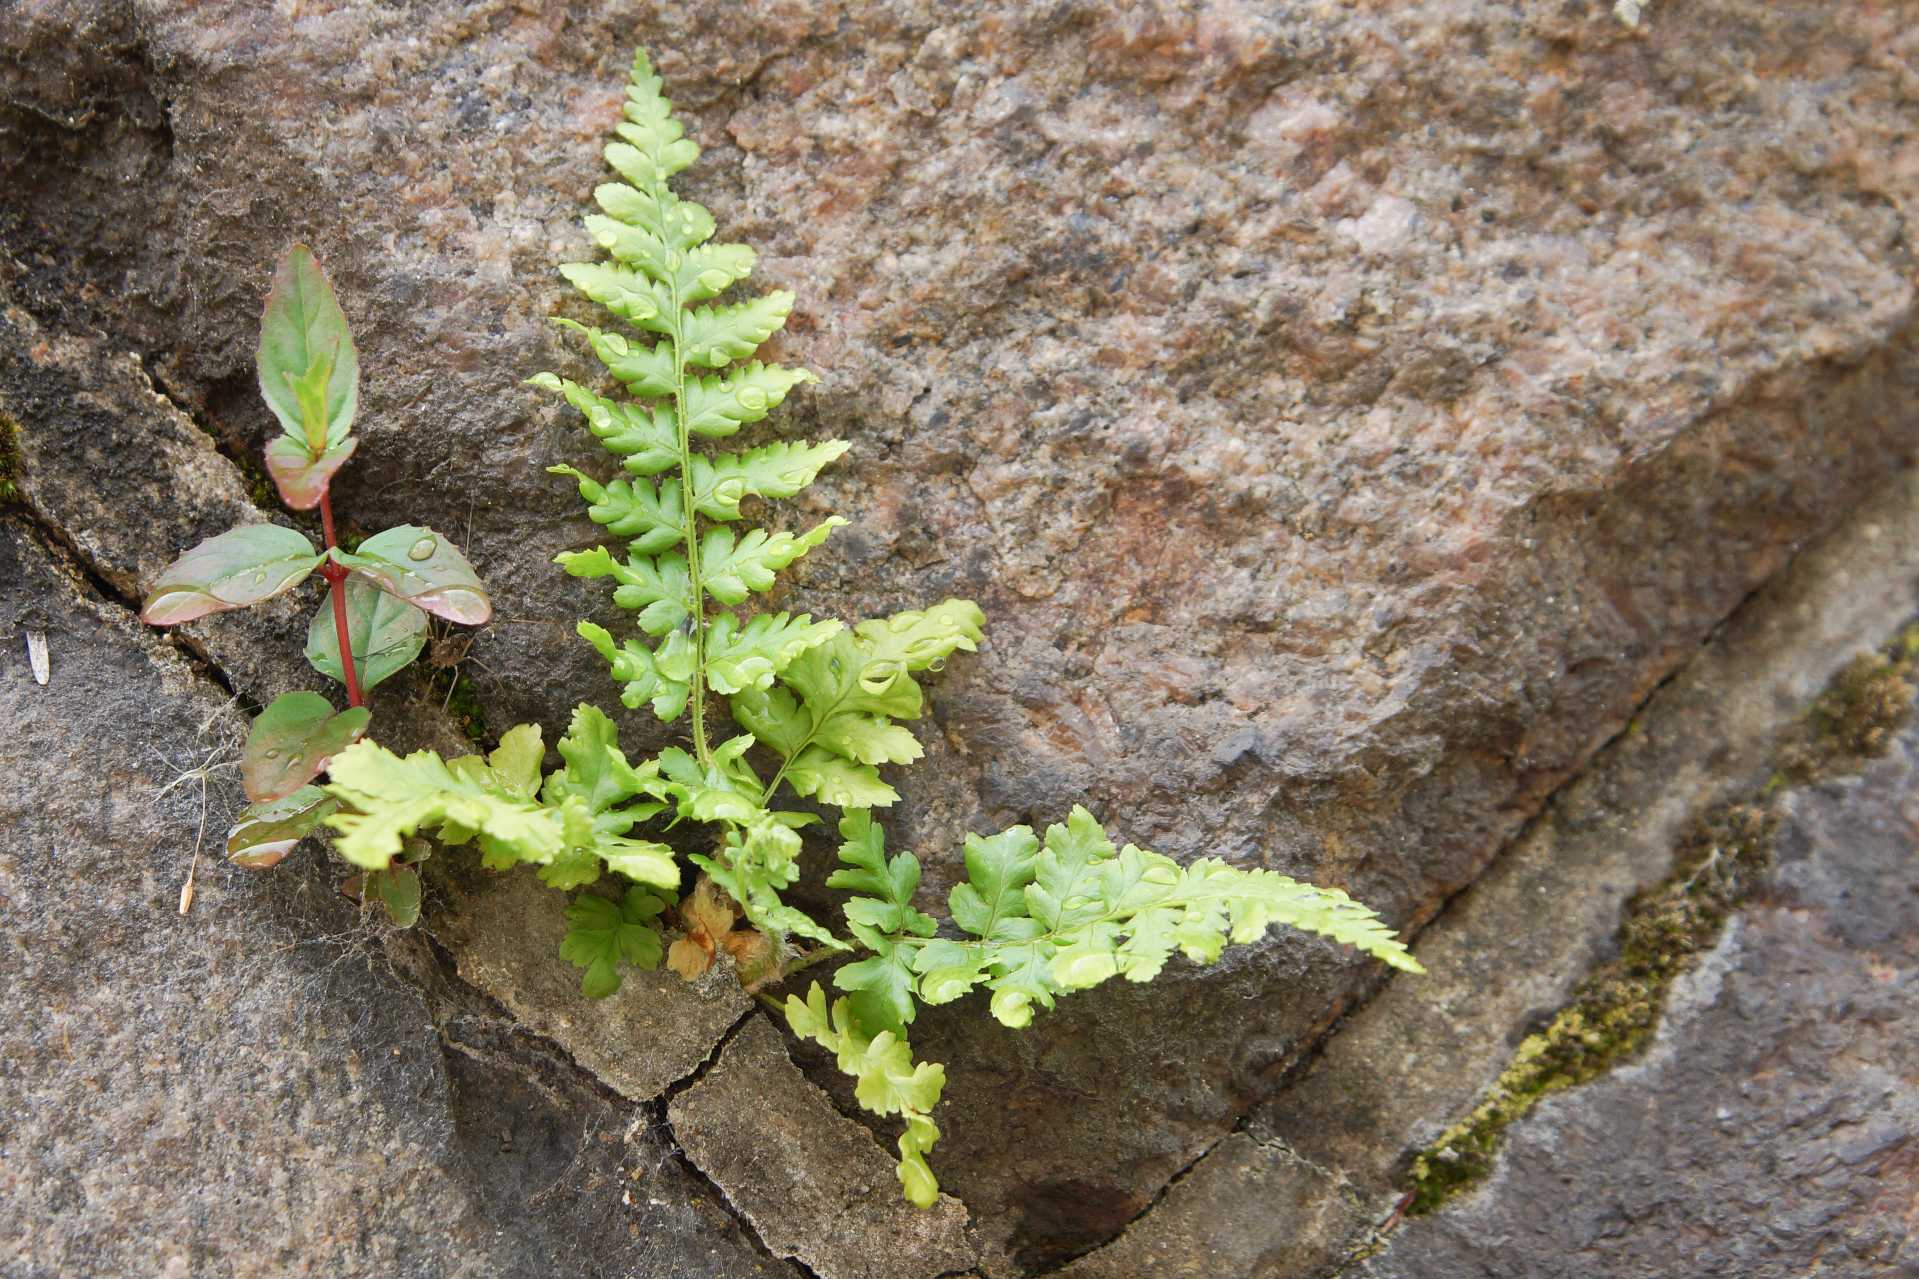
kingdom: Plantae
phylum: Tracheophyta
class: Polypodiopsida
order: Polypodiales
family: Dryopteridaceae
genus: Dryopteris
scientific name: Dryopteris
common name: Mangeløv (Dryopteris-slægten)
